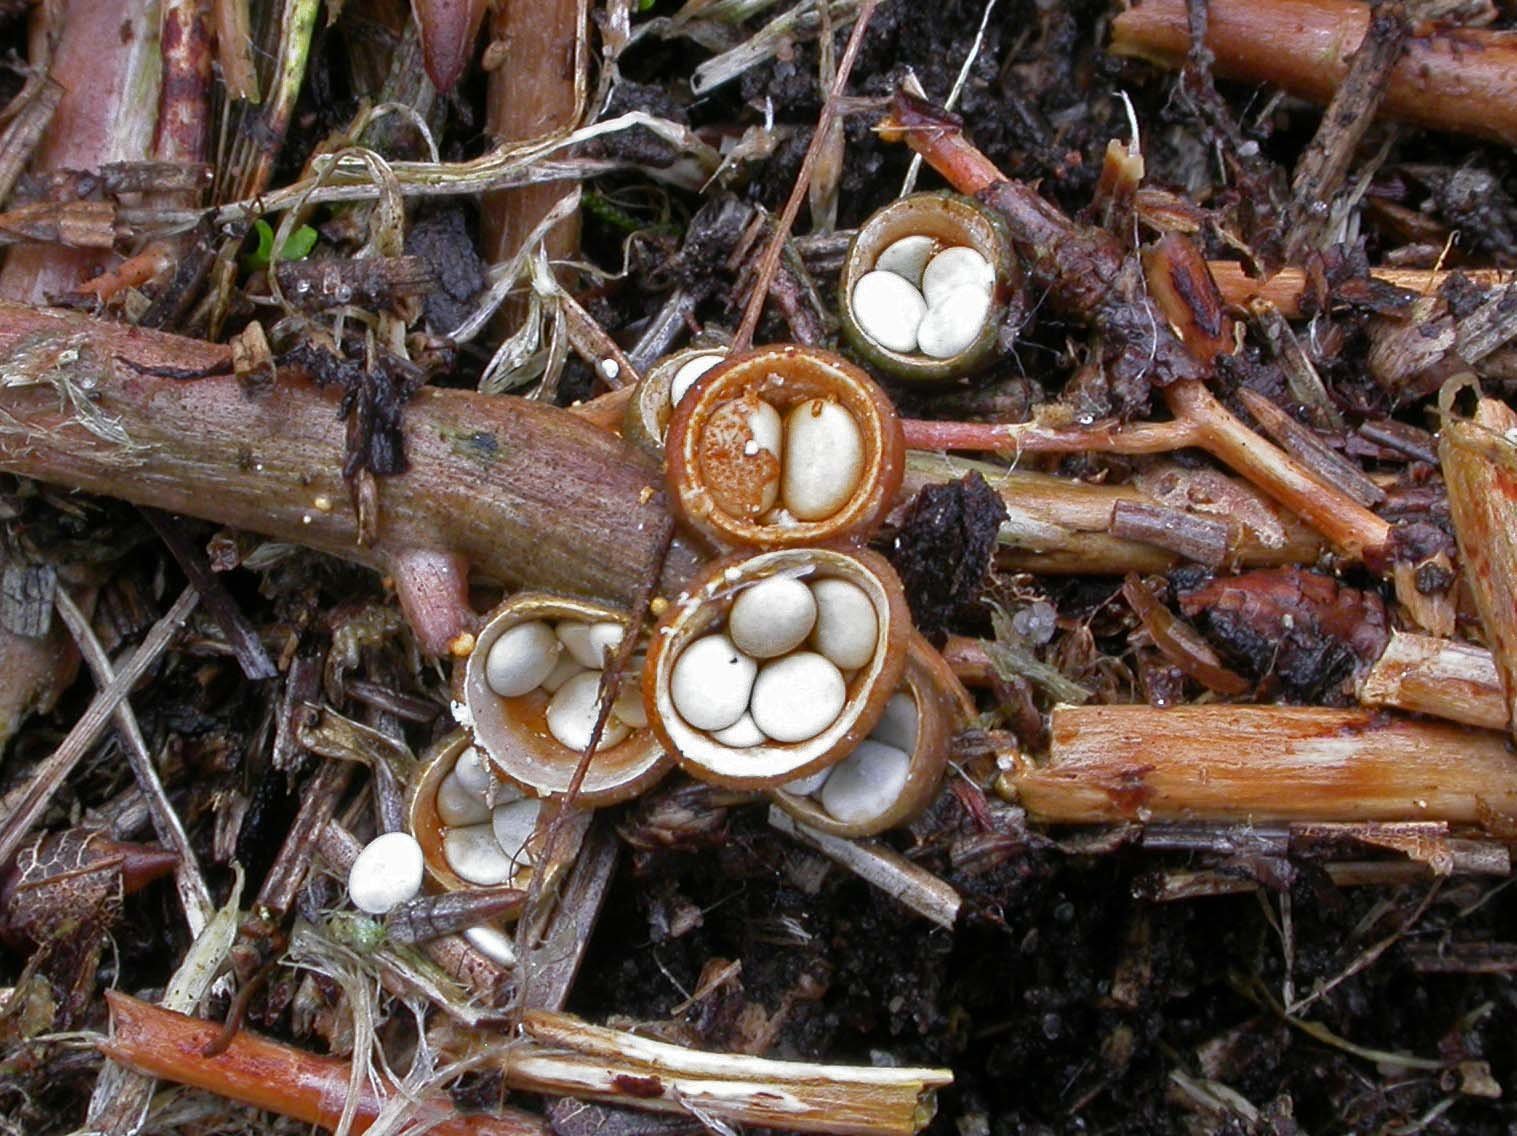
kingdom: Fungi
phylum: Basidiomycota
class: Agaricomycetes
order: Agaricales
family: Nidulariaceae
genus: Crucibulum
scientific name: Crucibulum crucibuliforme
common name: krukkesvamp
